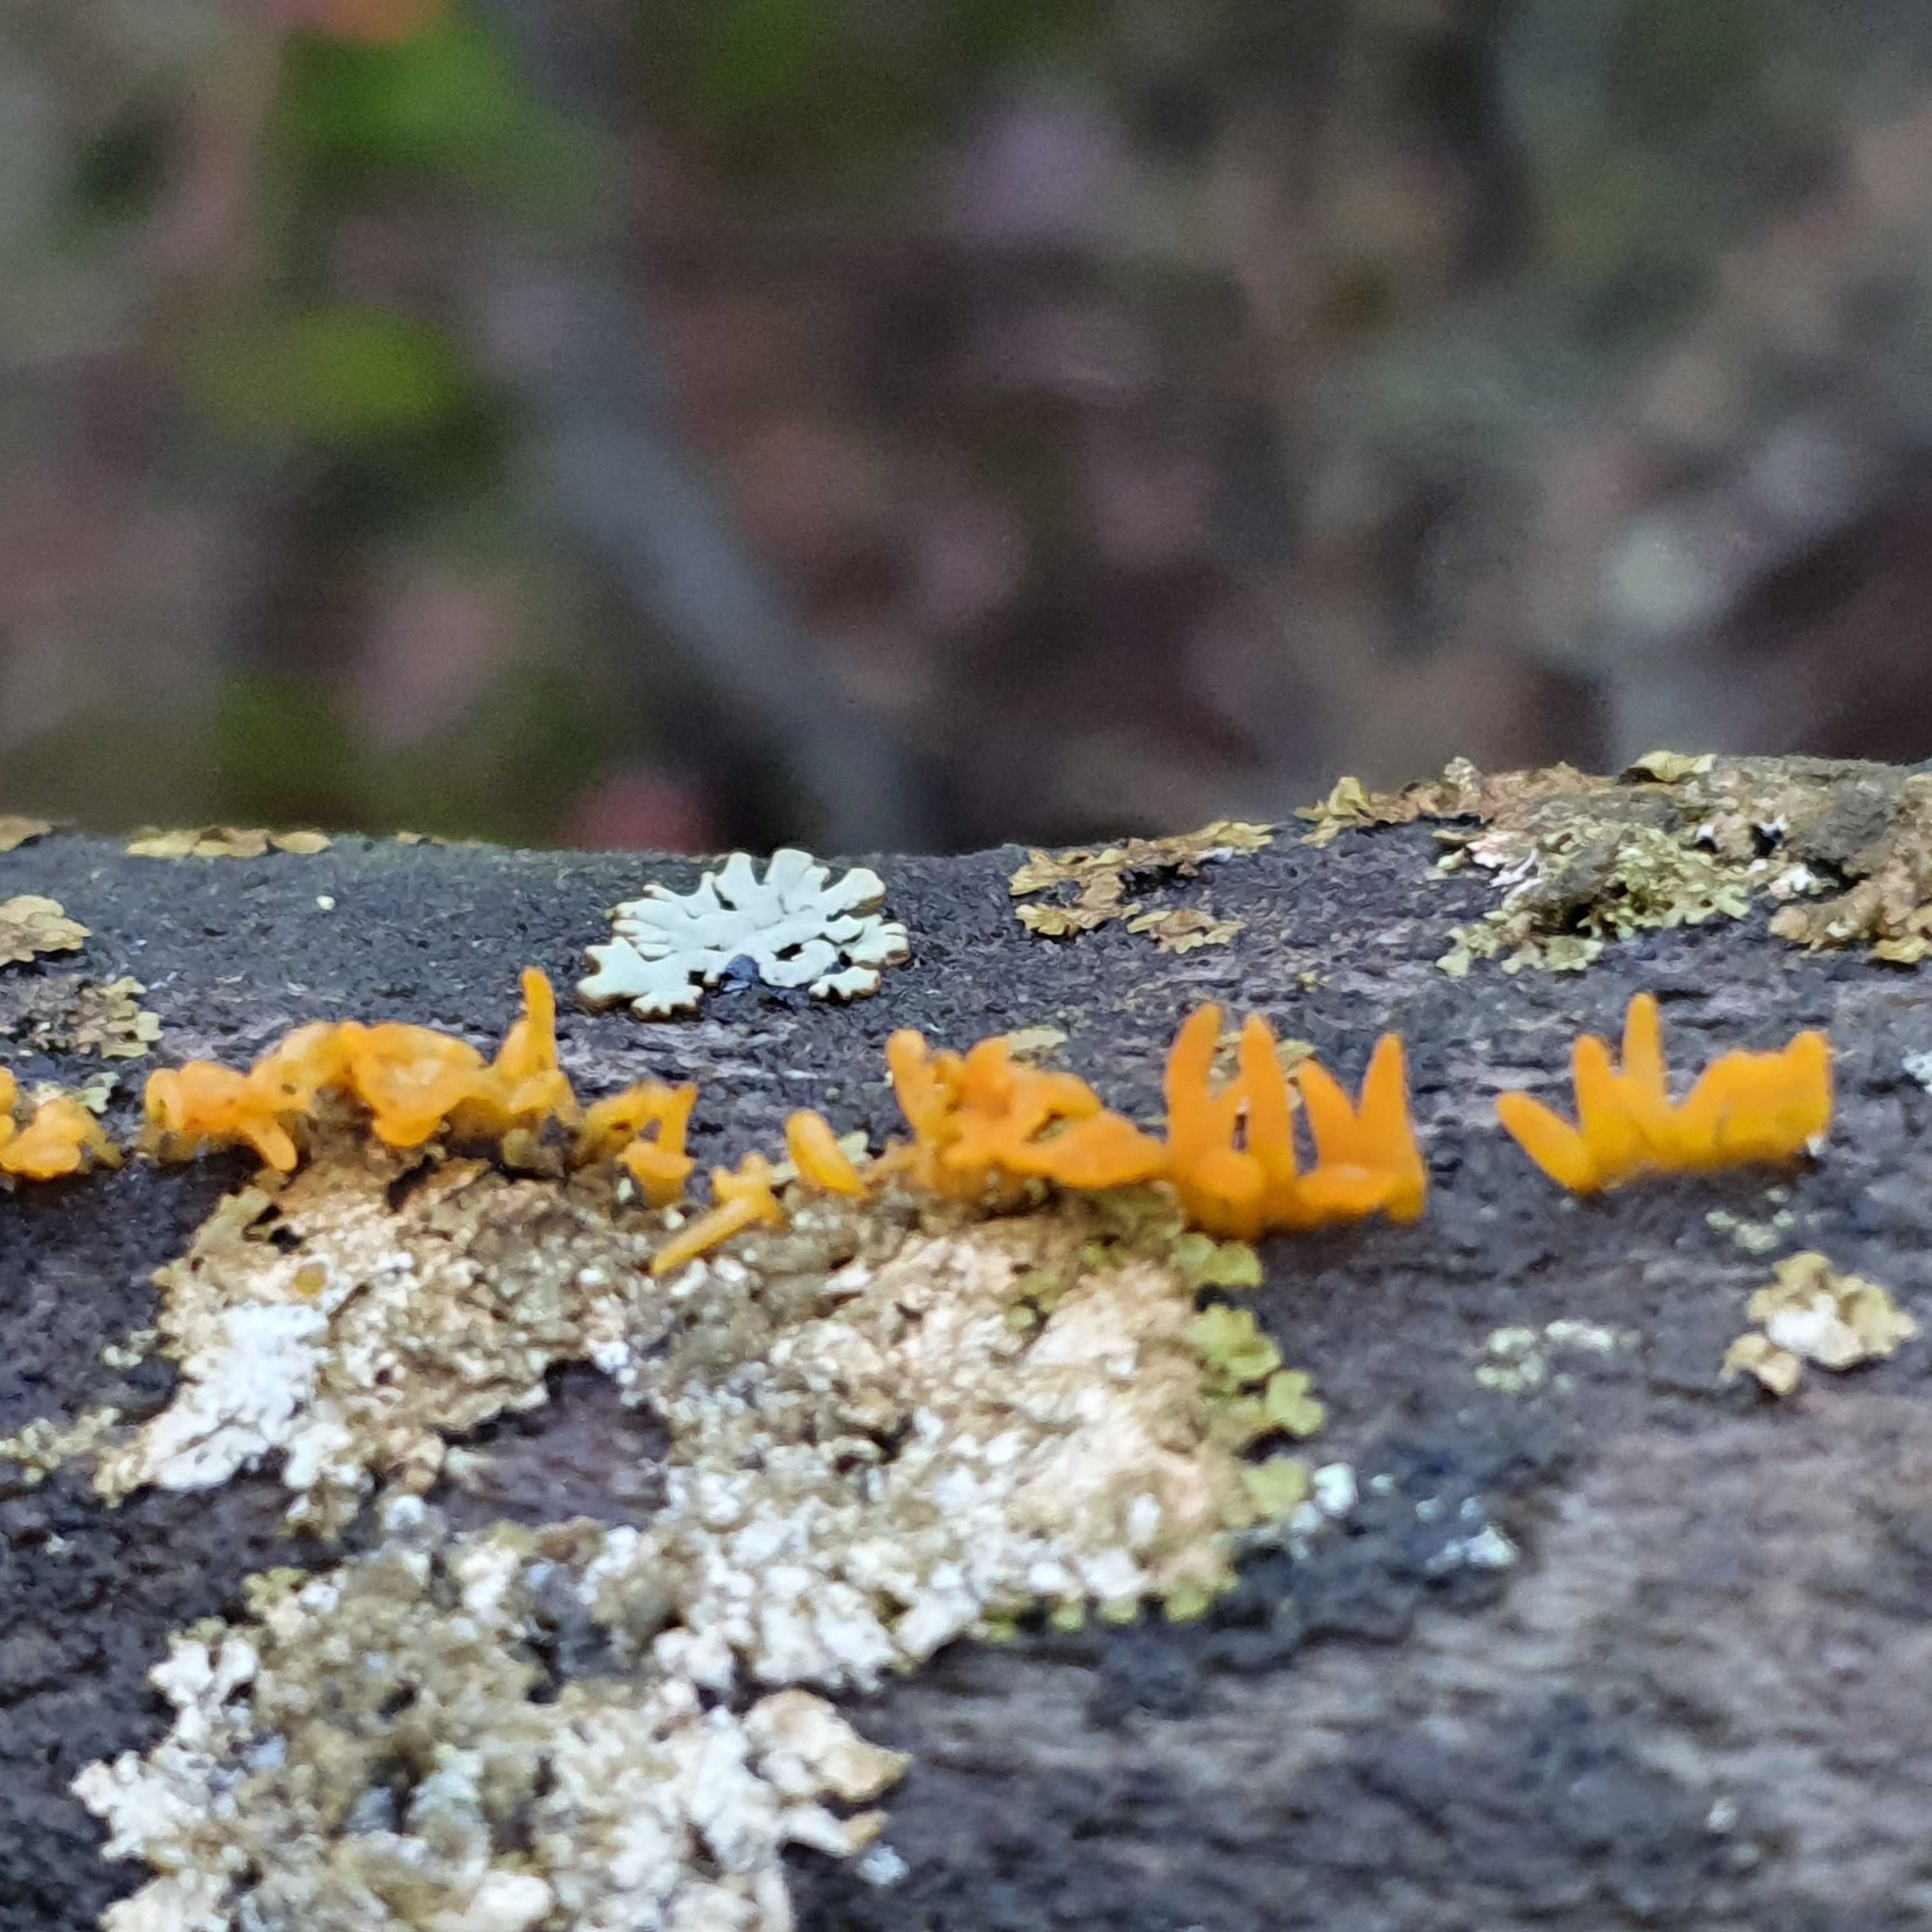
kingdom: Fungi
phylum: Basidiomycota
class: Dacrymycetes
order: Dacrymycetales
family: Dacrymycetaceae
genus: Calocera
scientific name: Calocera cornea
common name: liden guldgaffel
